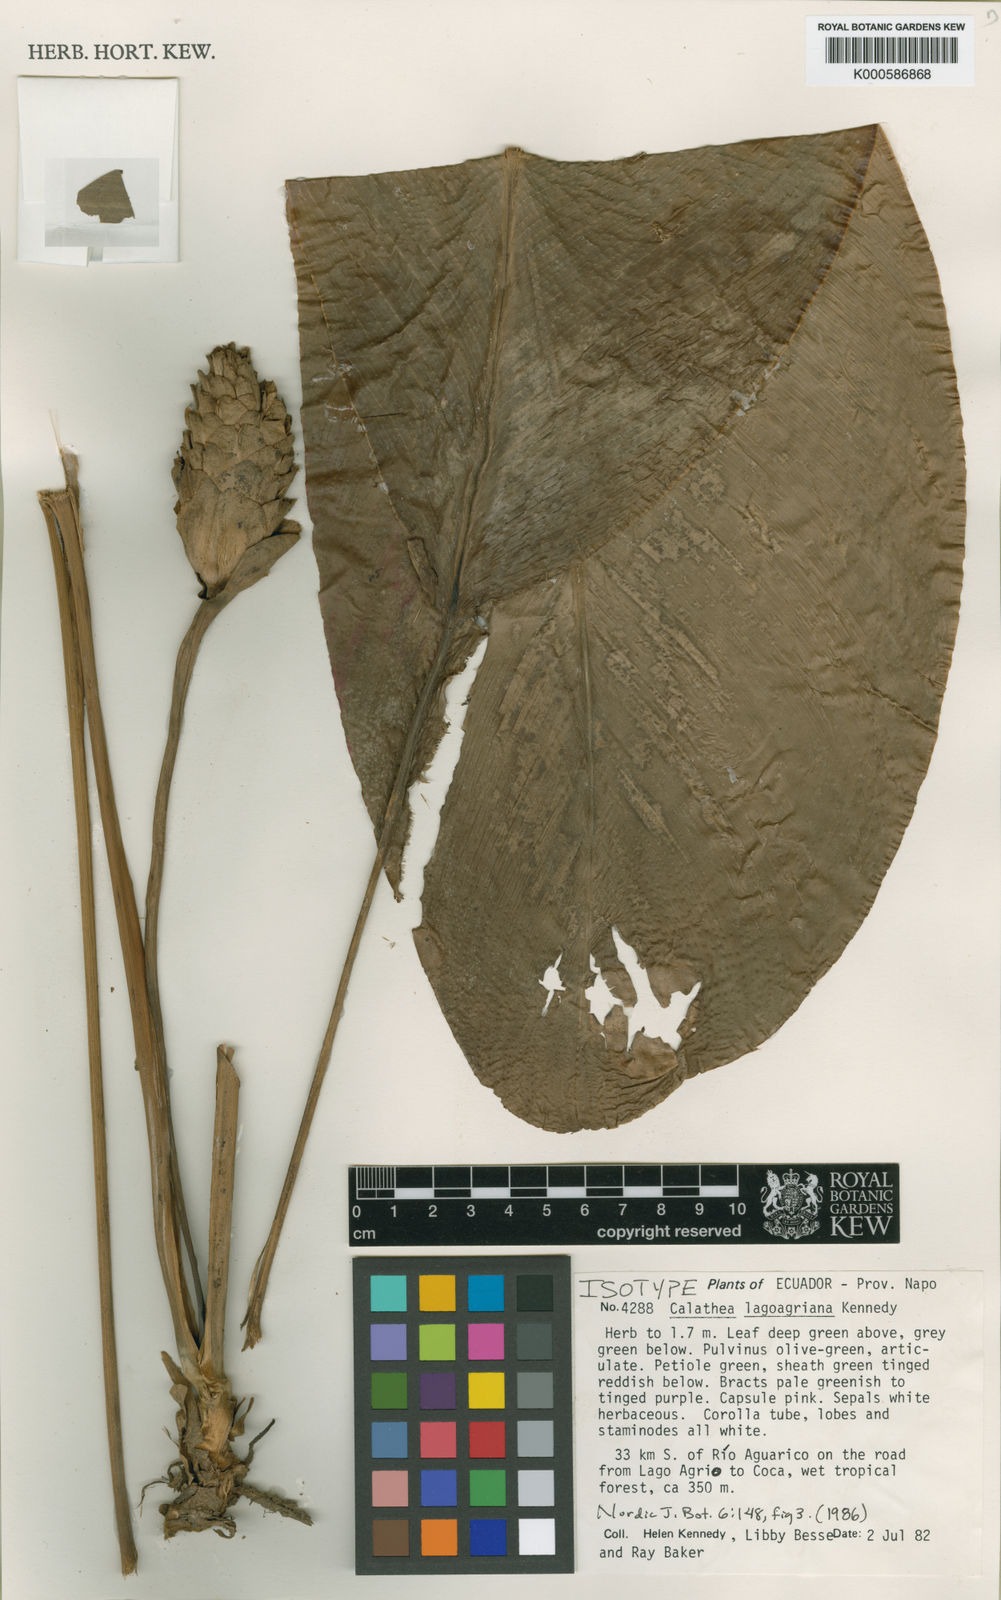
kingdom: Plantae
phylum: Tracheophyta
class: Liliopsida
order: Zingiberales
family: Marantaceae
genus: Goeppertia
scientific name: Goeppertia lagoagriana
